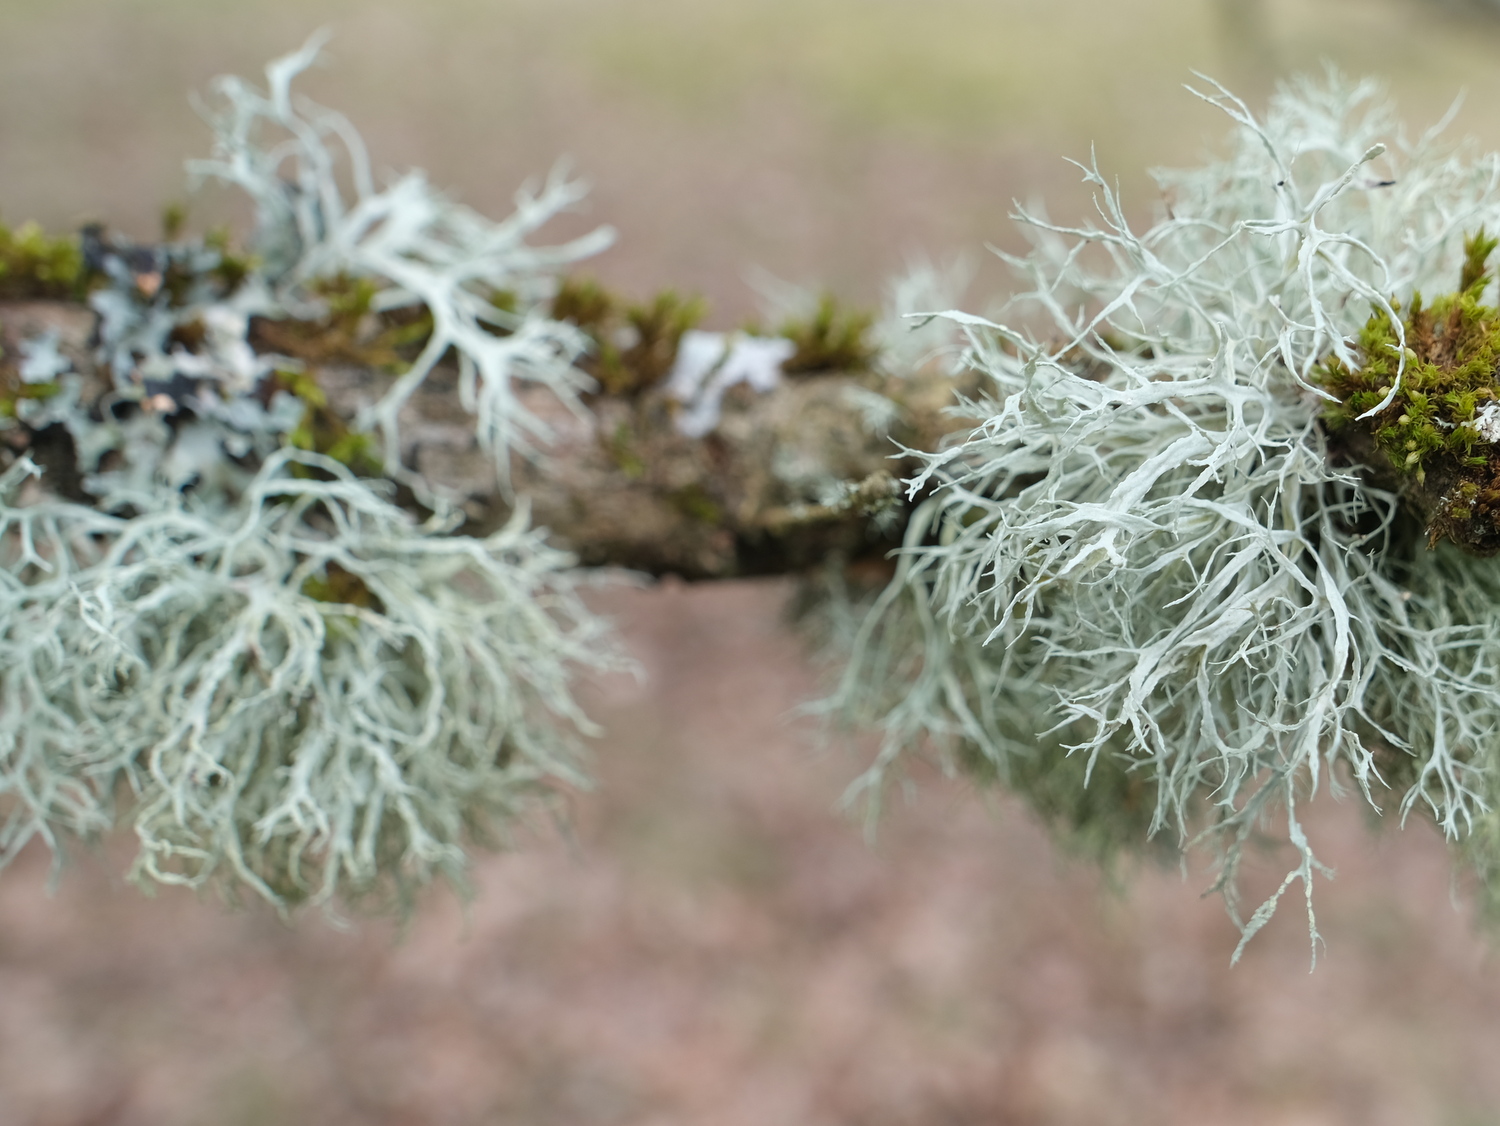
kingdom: Fungi
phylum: Ascomycota
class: Lecanoromycetes
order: Lecanorales
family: Ramalinaceae
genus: Ramalina
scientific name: Ramalina farinacea
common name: melet grenlav
